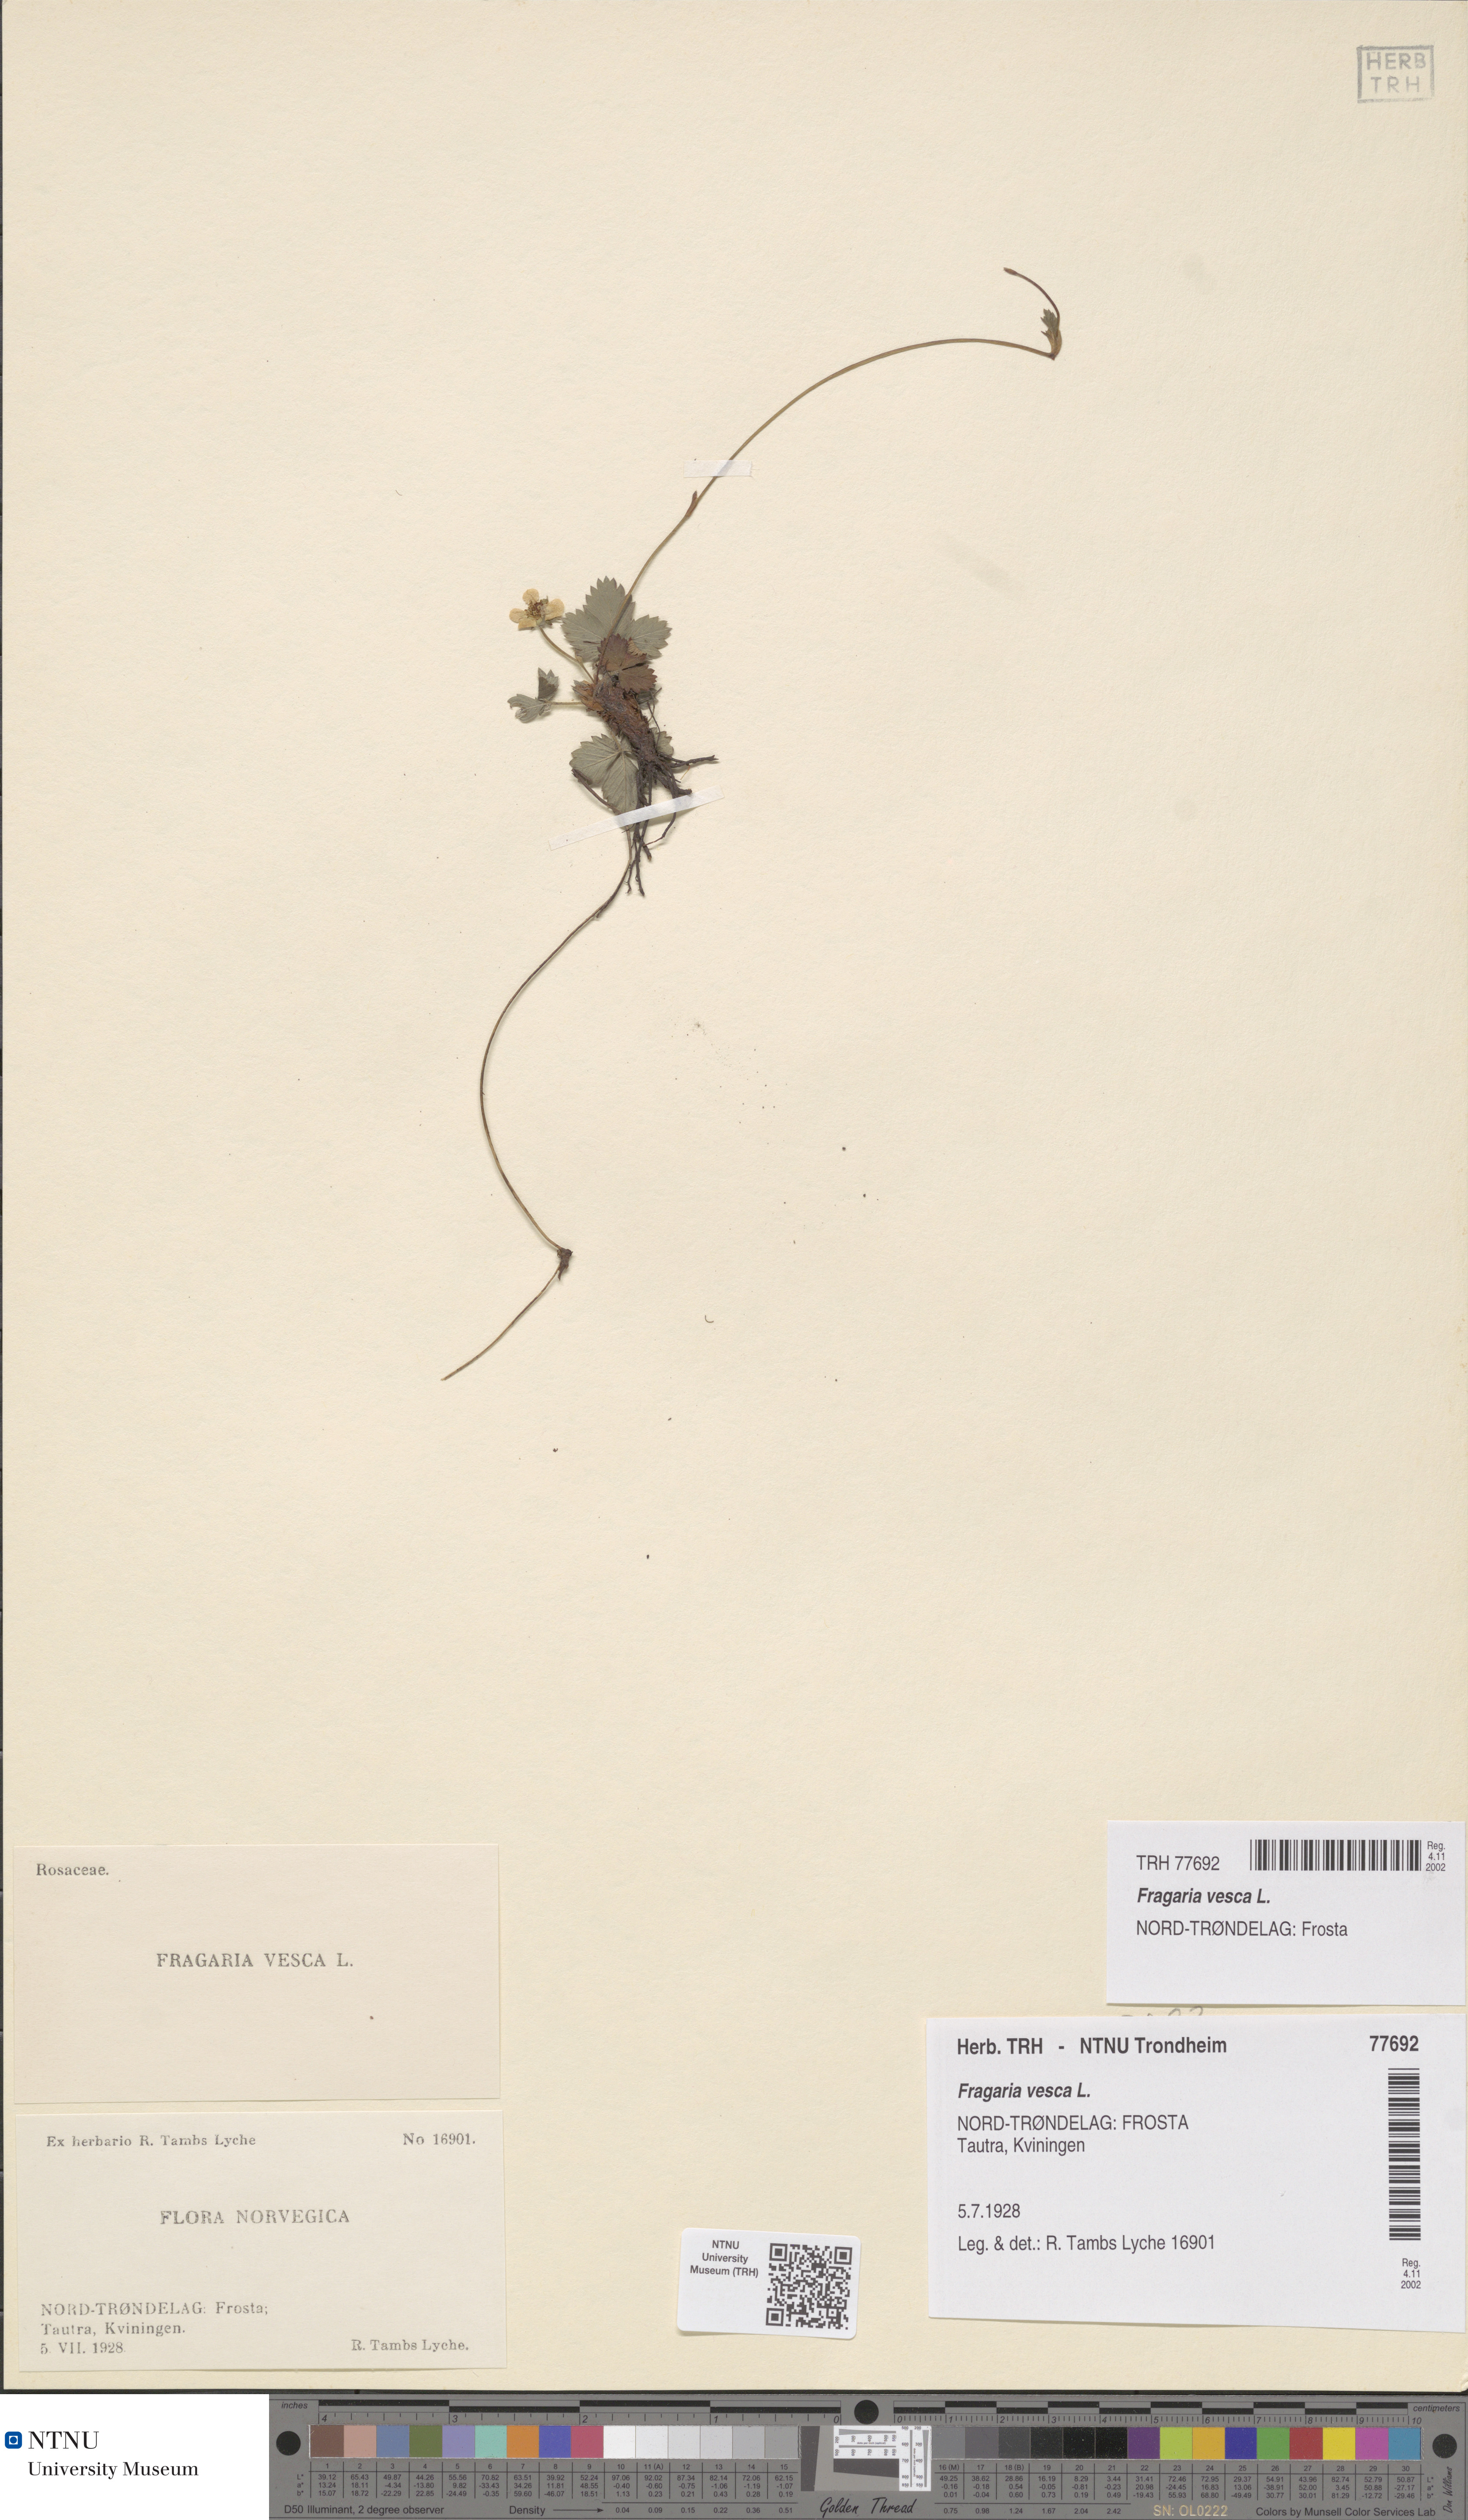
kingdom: Plantae
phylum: Tracheophyta
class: Magnoliopsida
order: Rosales
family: Rosaceae
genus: Fragaria
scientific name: Fragaria vesca
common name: Wild strawberry
